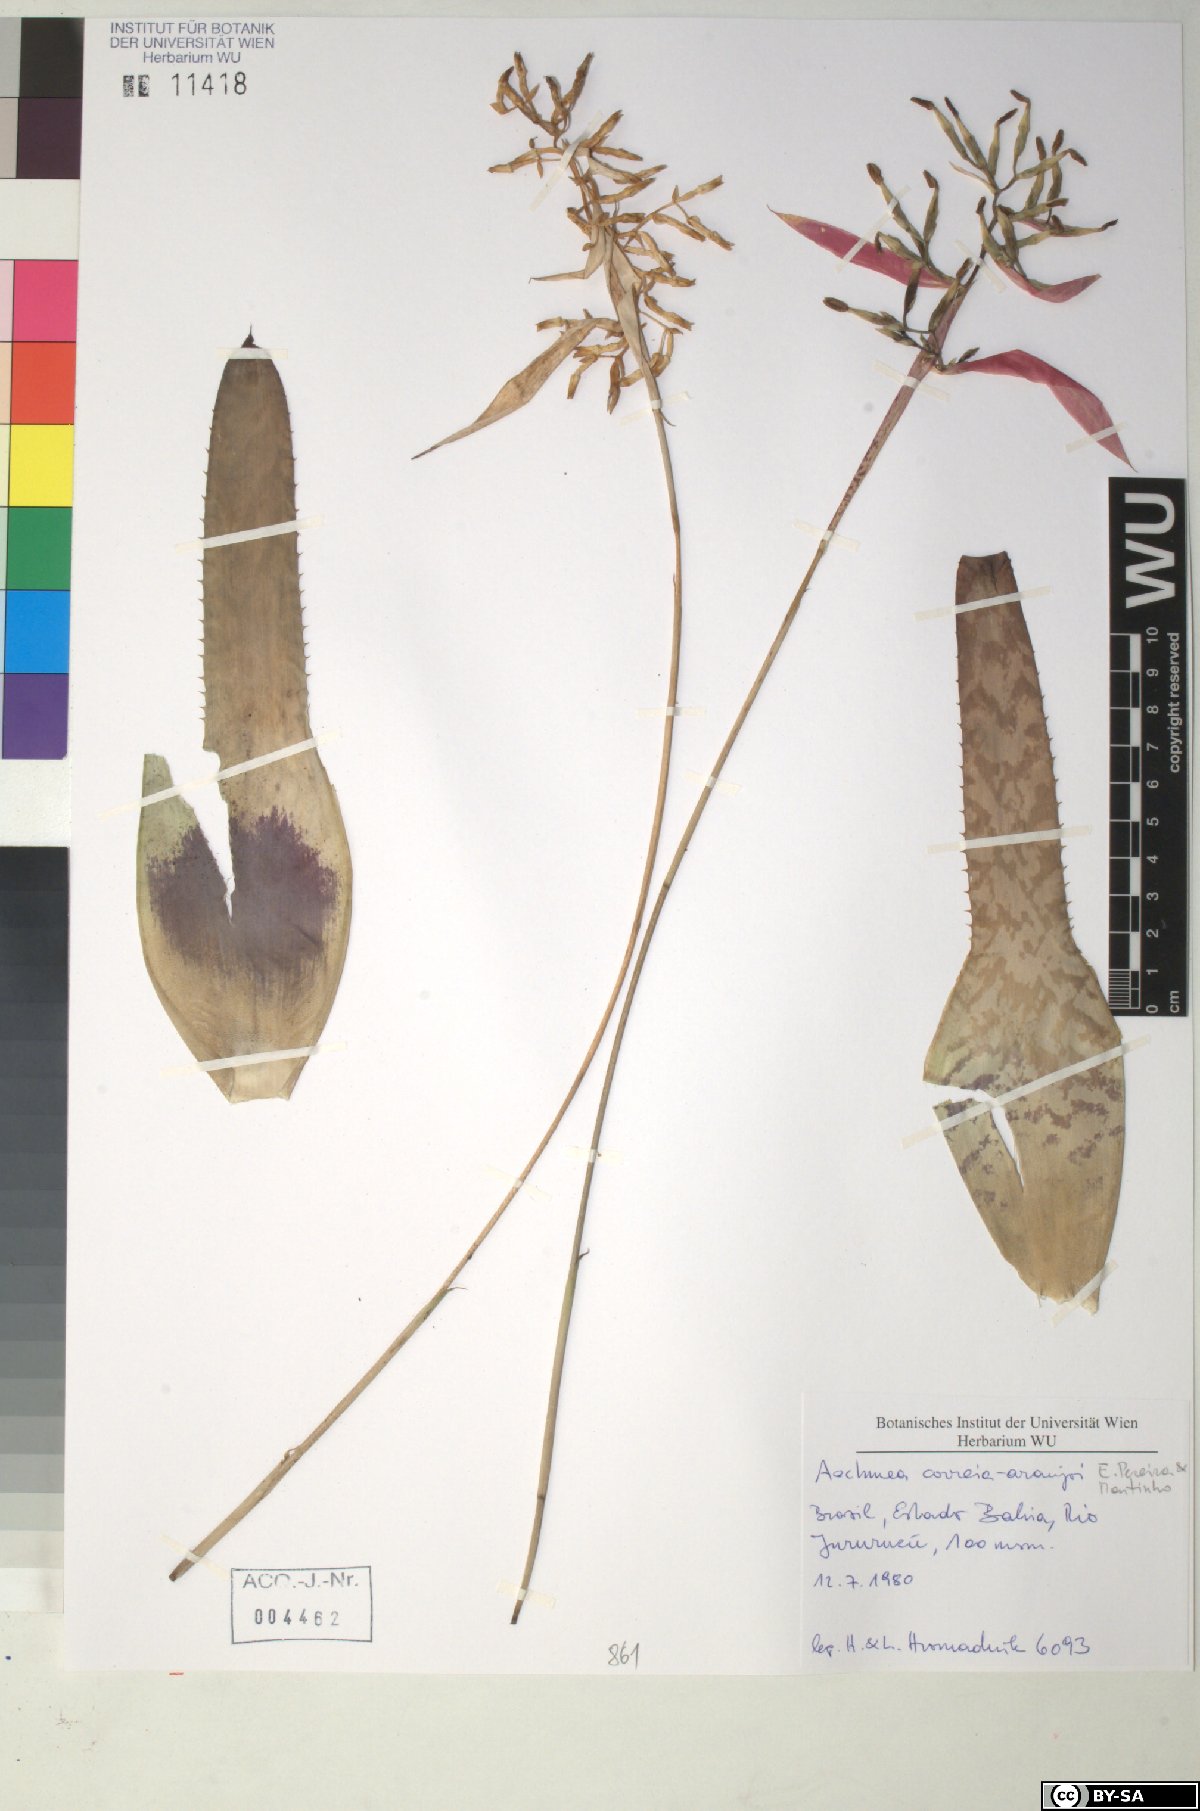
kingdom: Plantae
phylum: Tracheophyta
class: Liliopsida
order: Poales
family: Bromeliaceae
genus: Aechmea
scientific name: Aechmea correia-araujoi
